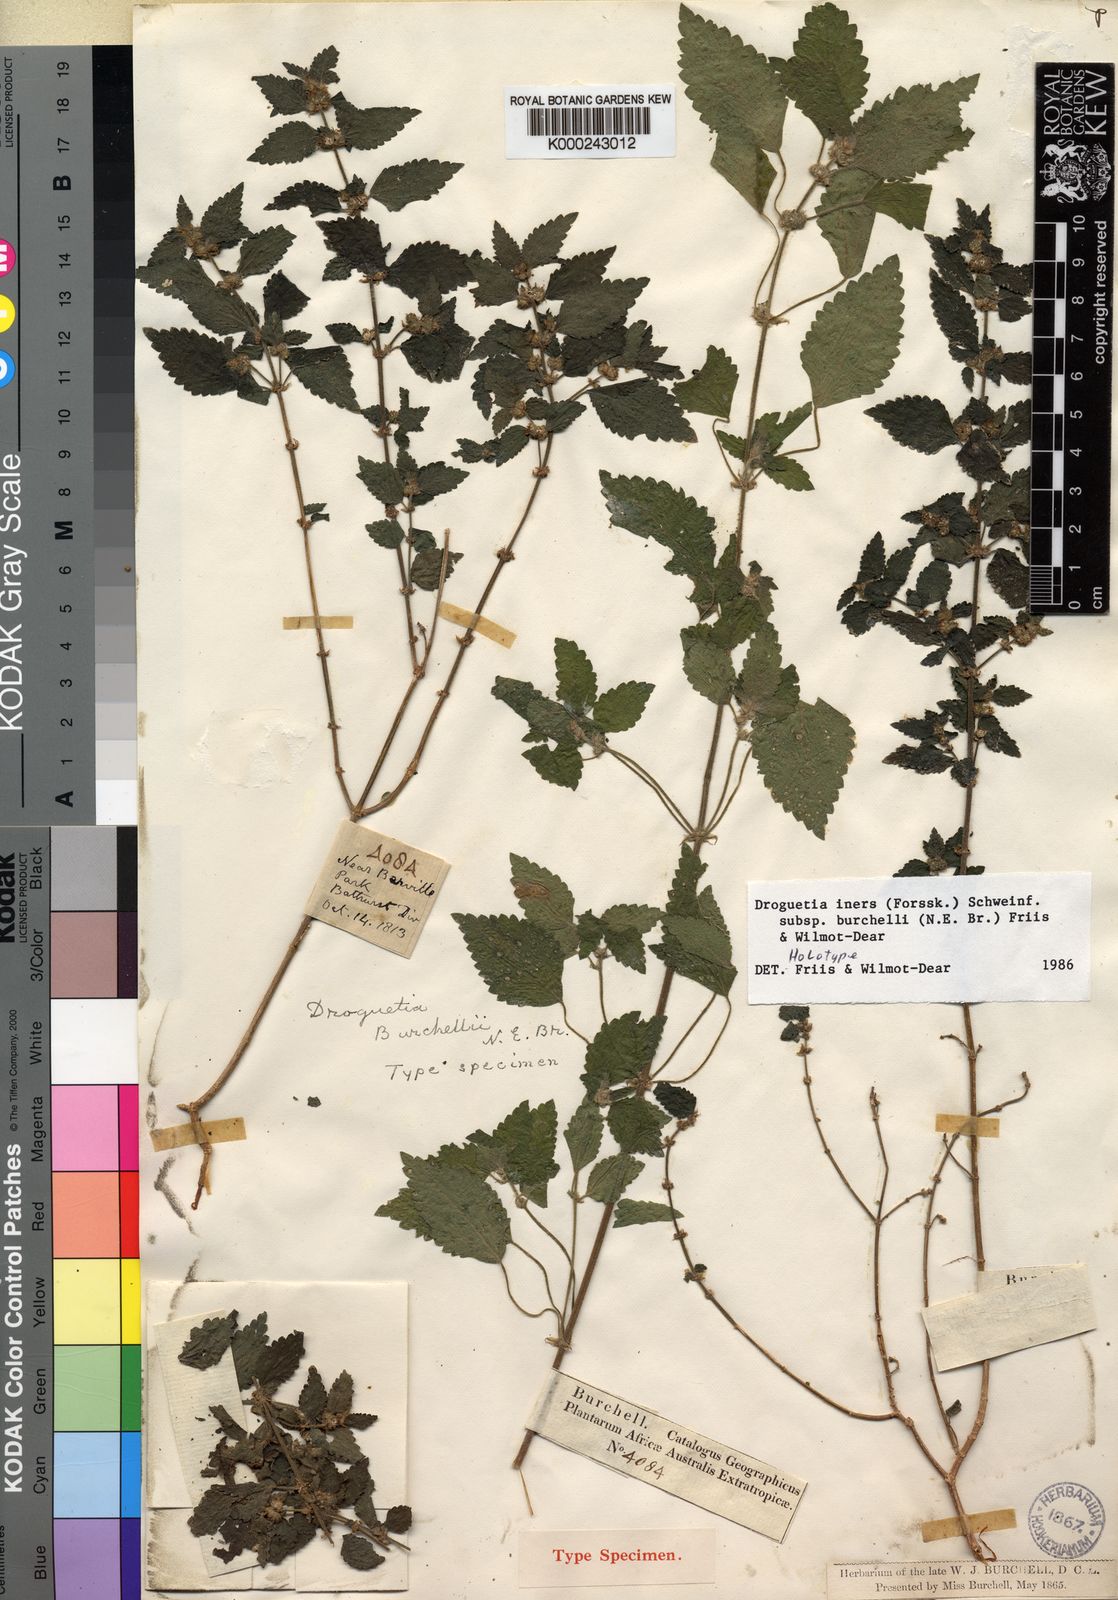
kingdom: Plantae
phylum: Tracheophyta
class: Magnoliopsida
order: Rosales
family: Urticaceae
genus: Droguetia
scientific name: Droguetia iners
